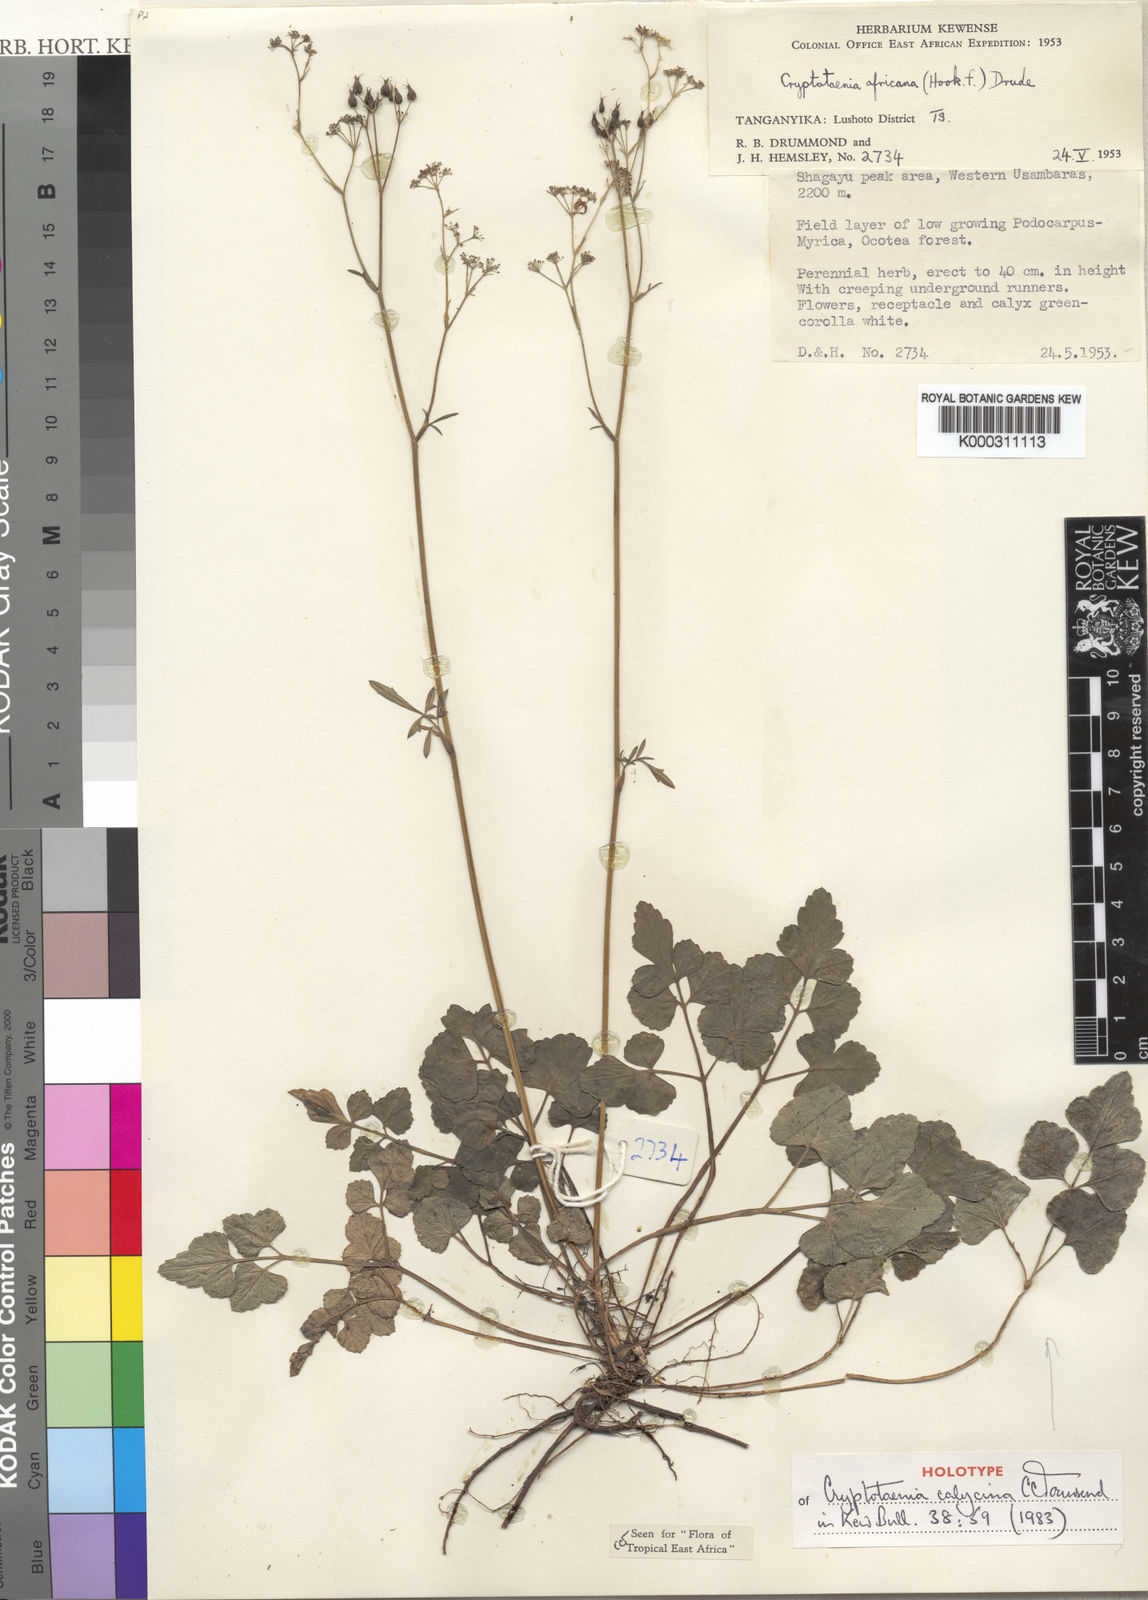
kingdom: Plantae
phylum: Tracheophyta
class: Magnoliopsida
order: Apiales
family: Apiaceae
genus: Cryptotaenia
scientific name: Cryptotaenia calycina
